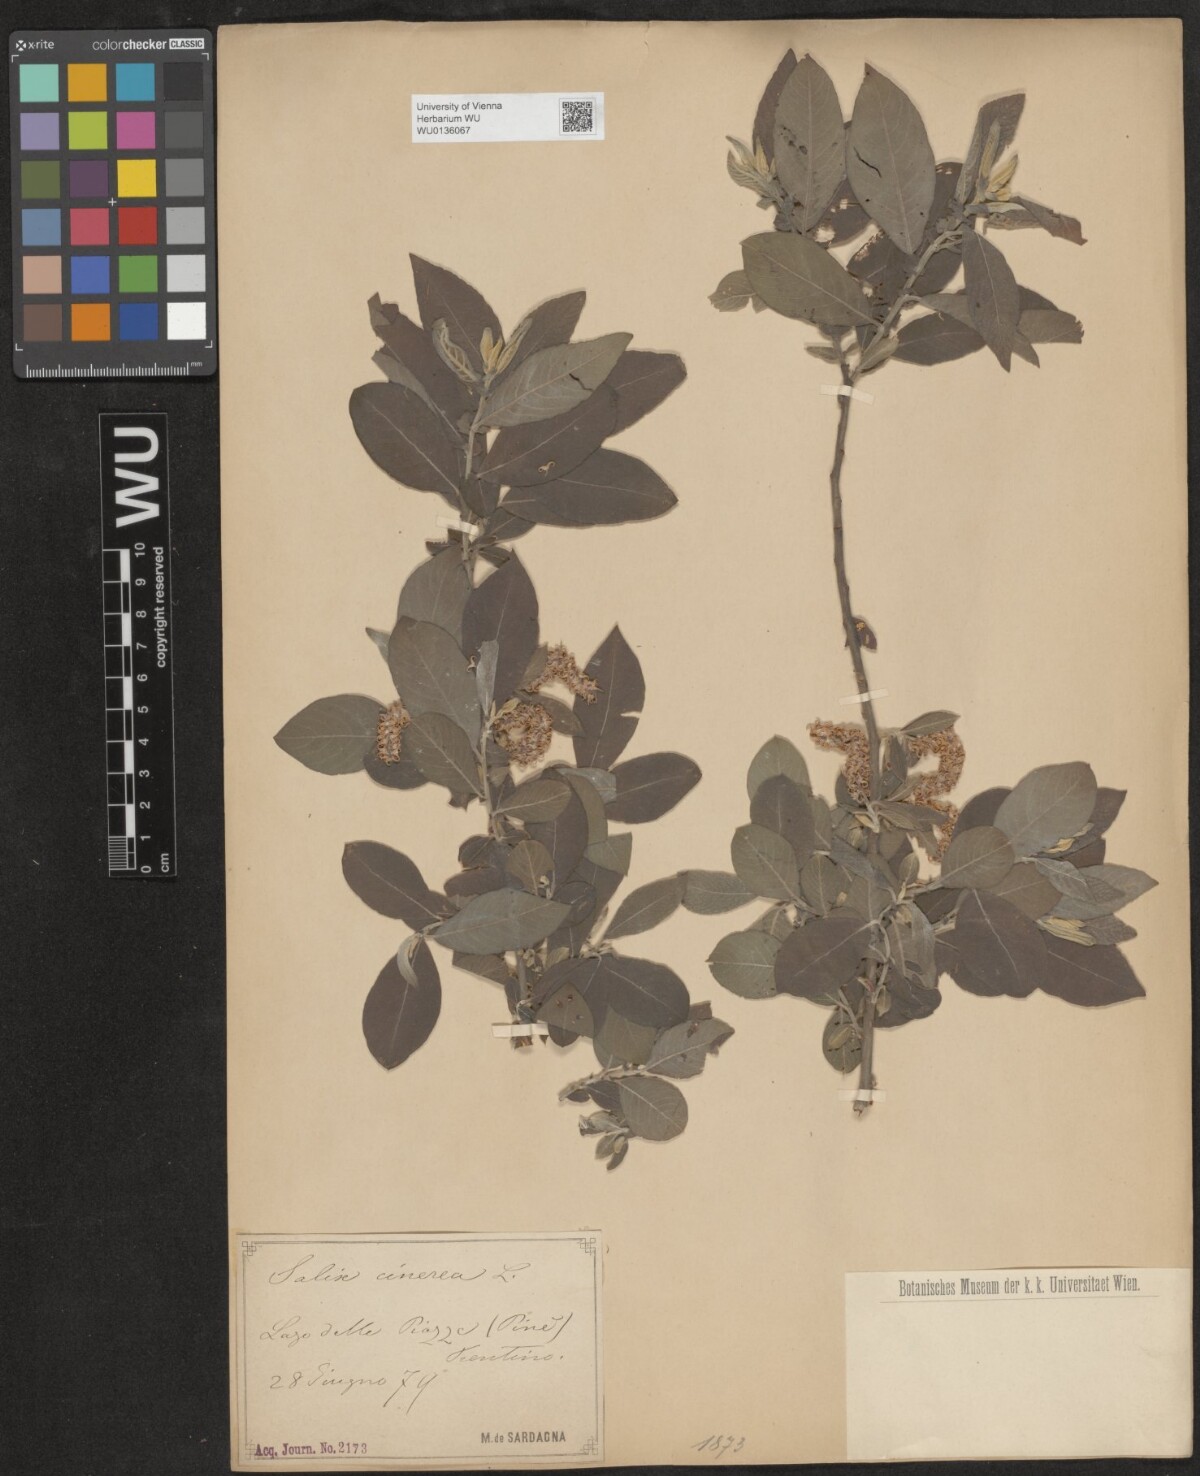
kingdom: Plantae
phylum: Tracheophyta
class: Magnoliopsida
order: Malpighiales
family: Salicaceae
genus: Salix
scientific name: Salix cinerea
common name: Common sallow
